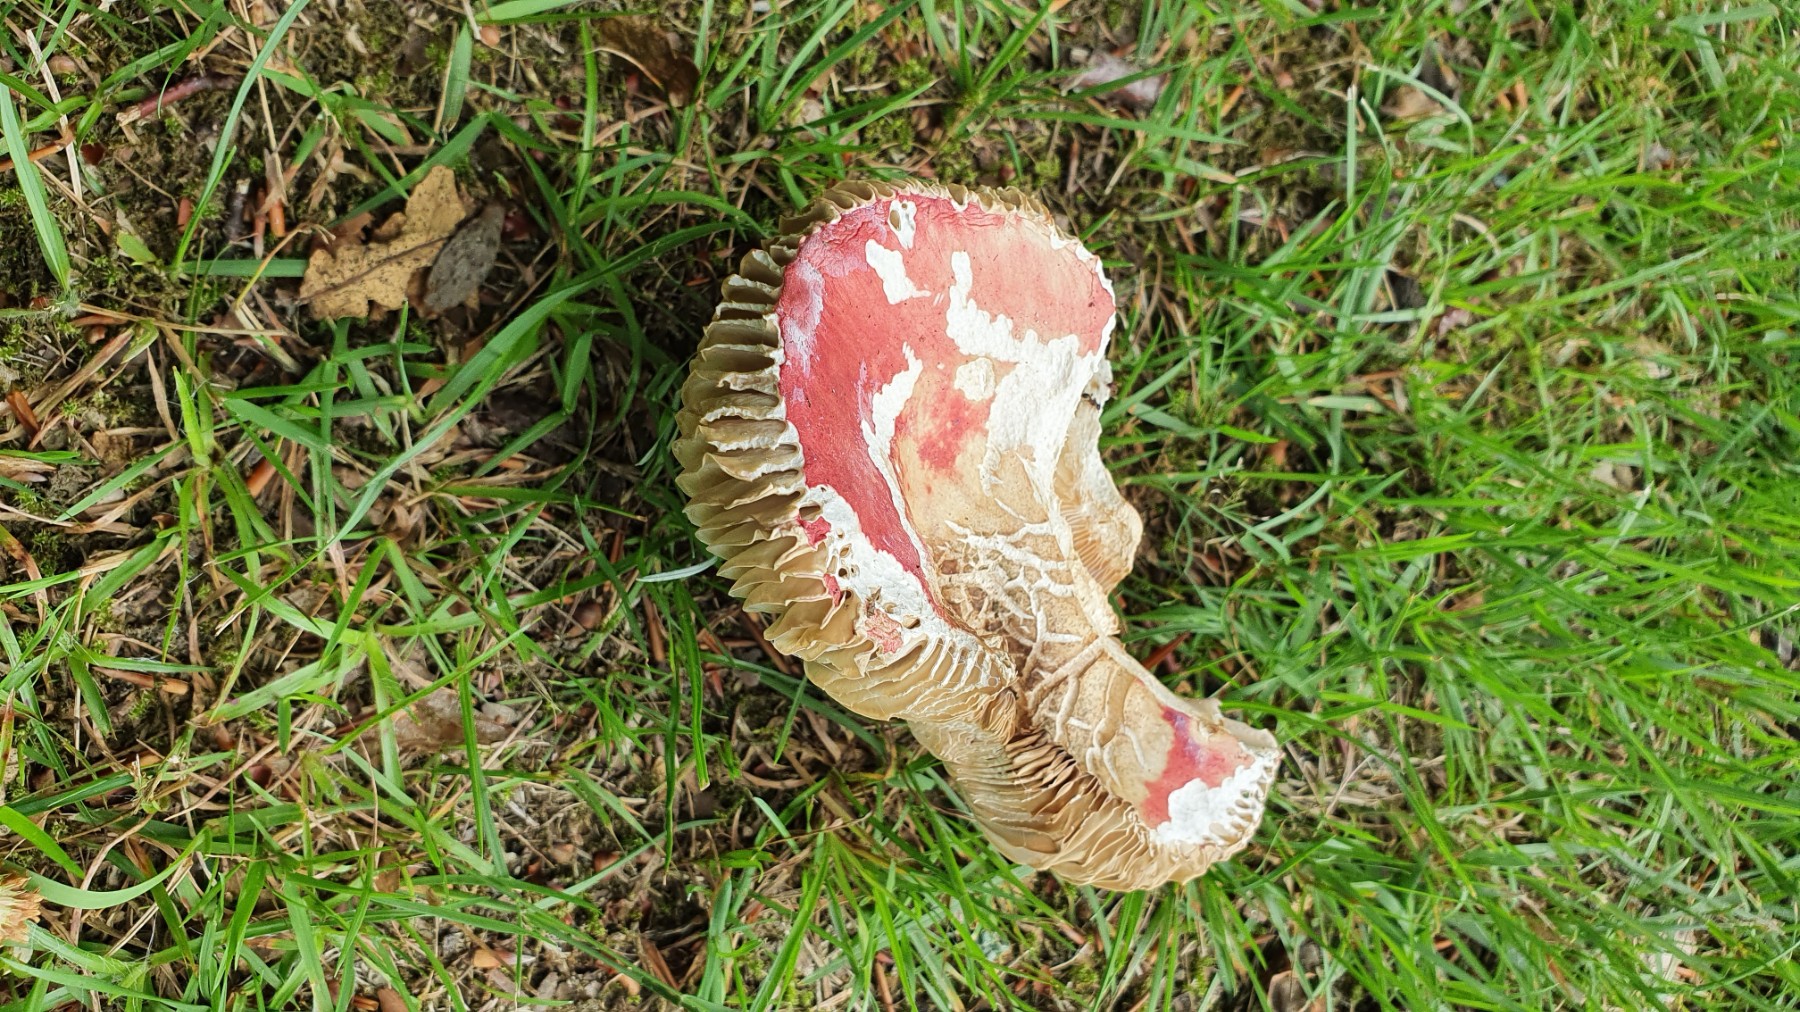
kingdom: Fungi
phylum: Basidiomycota
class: Agaricomycetes
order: Russulales
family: Russulaceae
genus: Russula
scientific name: Russula rosea
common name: fastkødet skørhat
